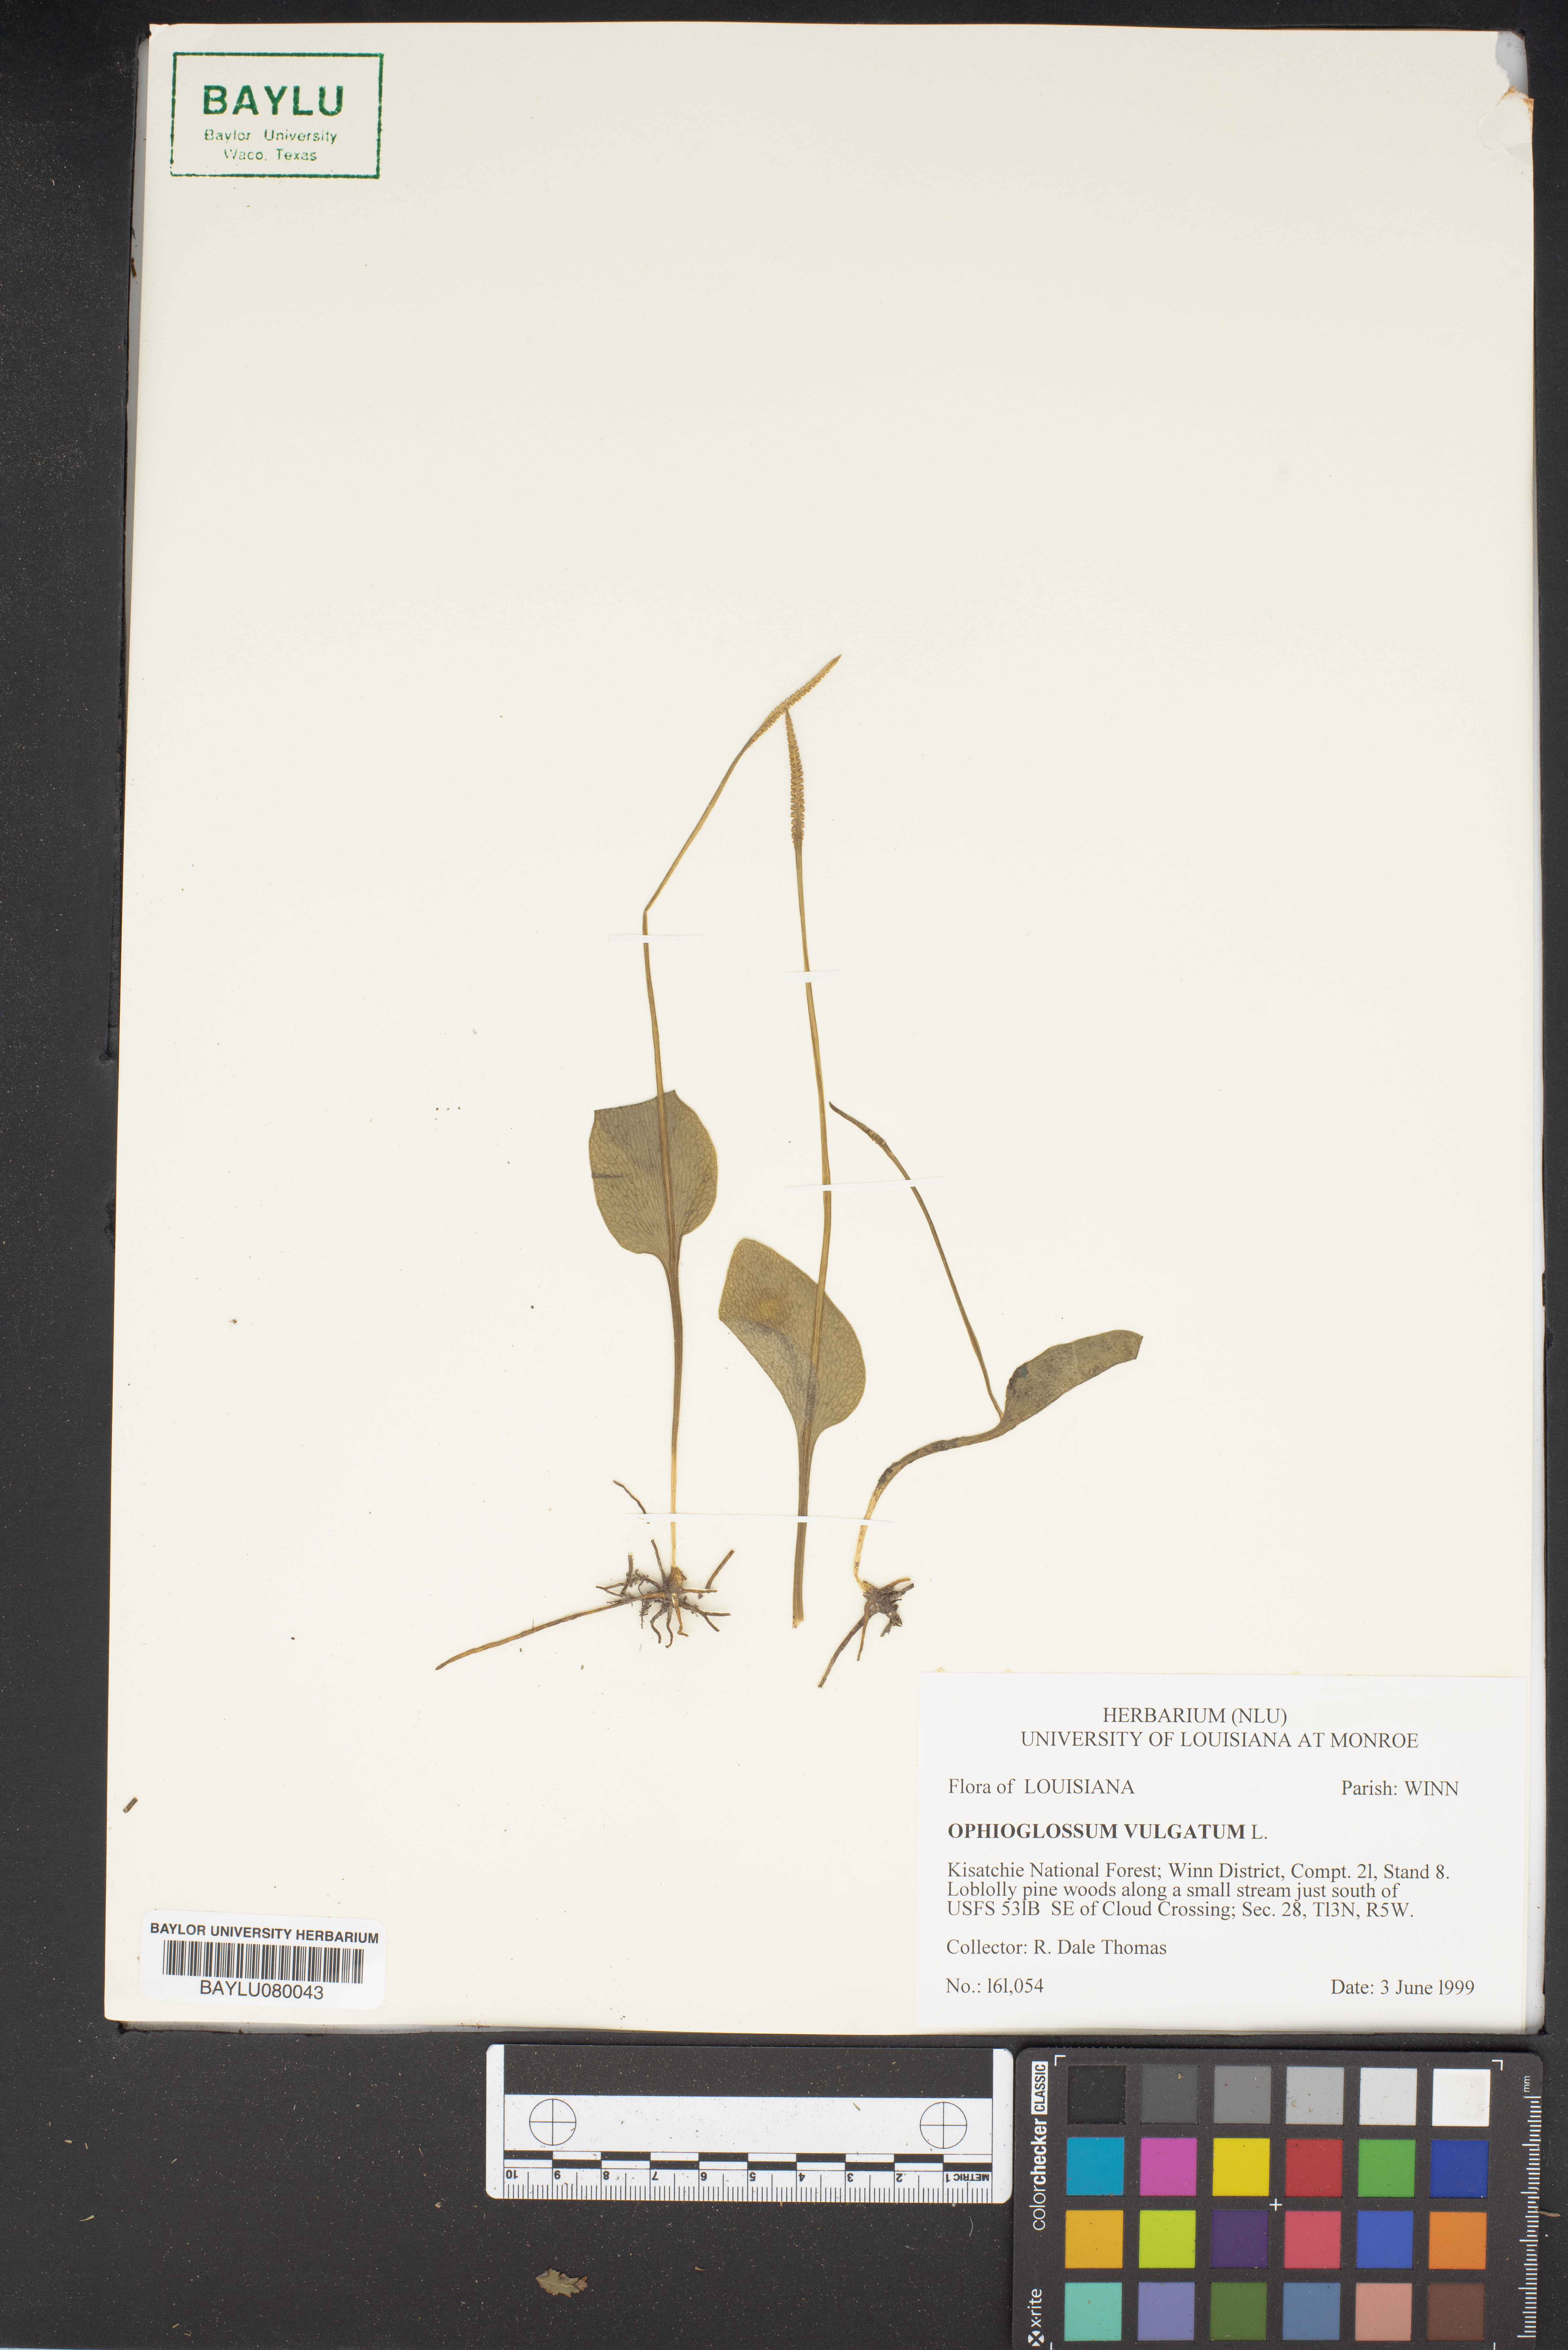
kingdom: Plantae
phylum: Tracheophyta
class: Polypodiopsida
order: Ophioglossales
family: Ophioglossaceae
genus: Ophioglossum
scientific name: Ophioglossum vulgatum
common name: Adder's-tongue
